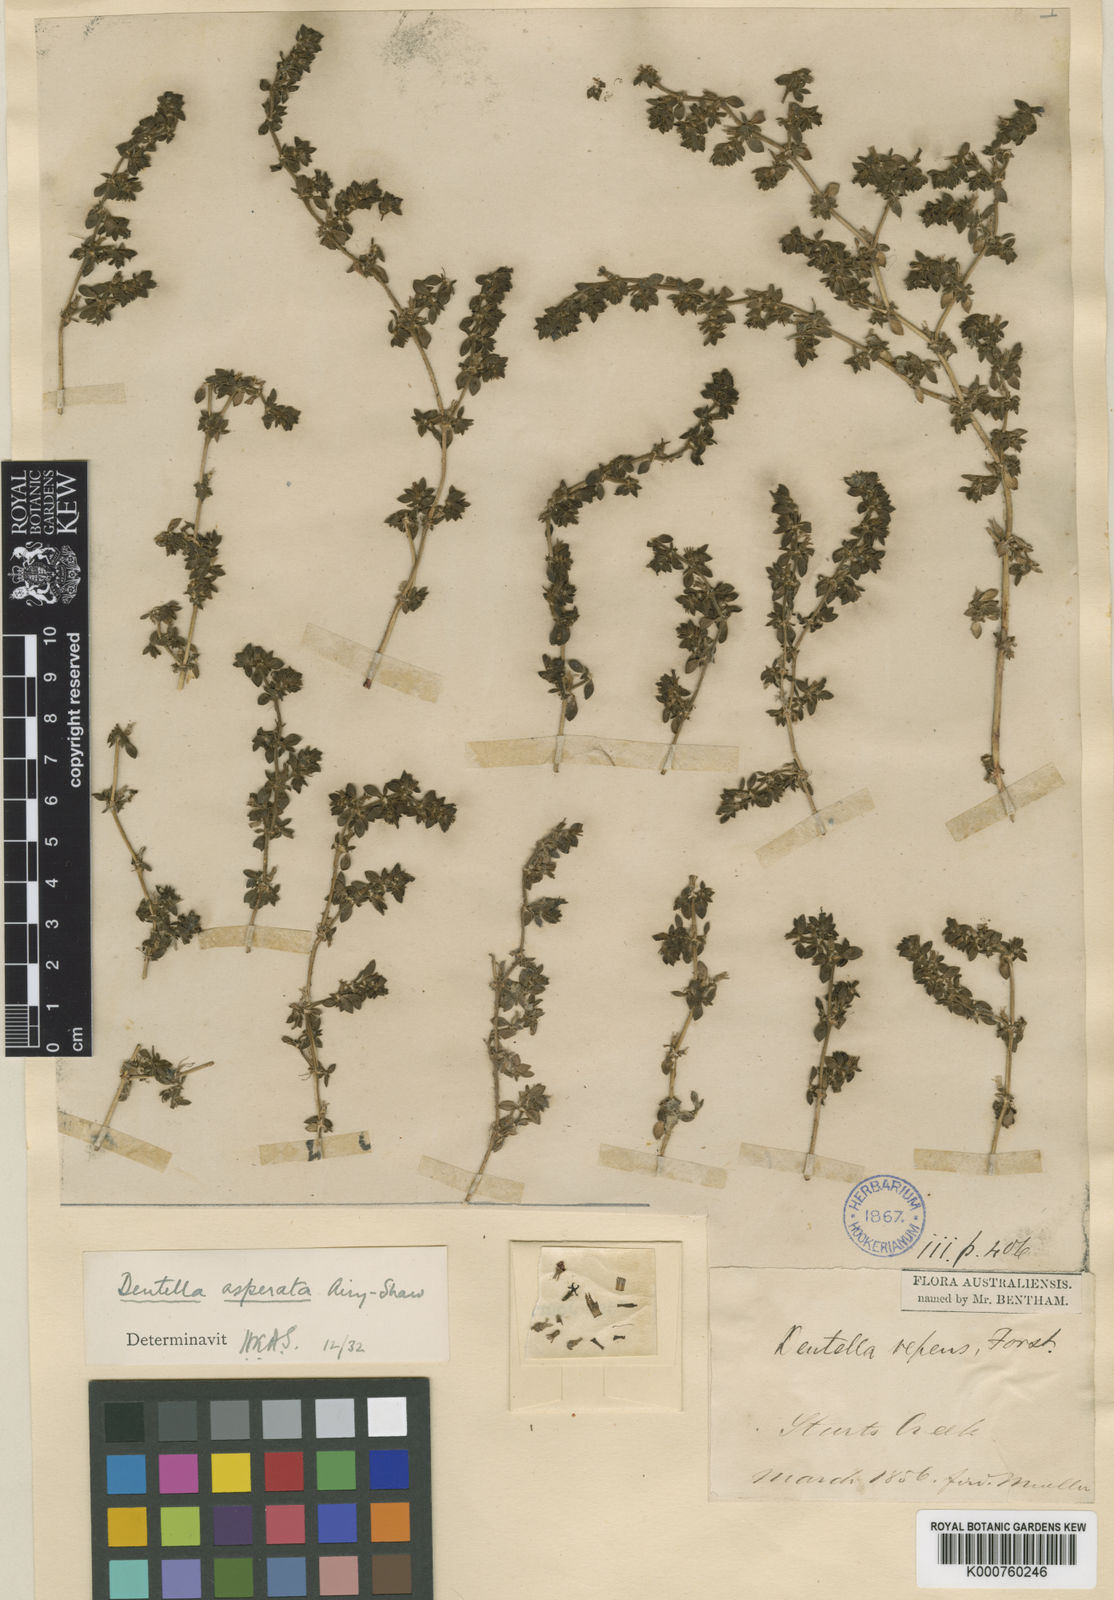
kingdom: Plantae
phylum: Tracheophyta
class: Magnoliopsida
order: Gentianales
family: Rubiaceae
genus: Dentella
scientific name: Dentella asperata
